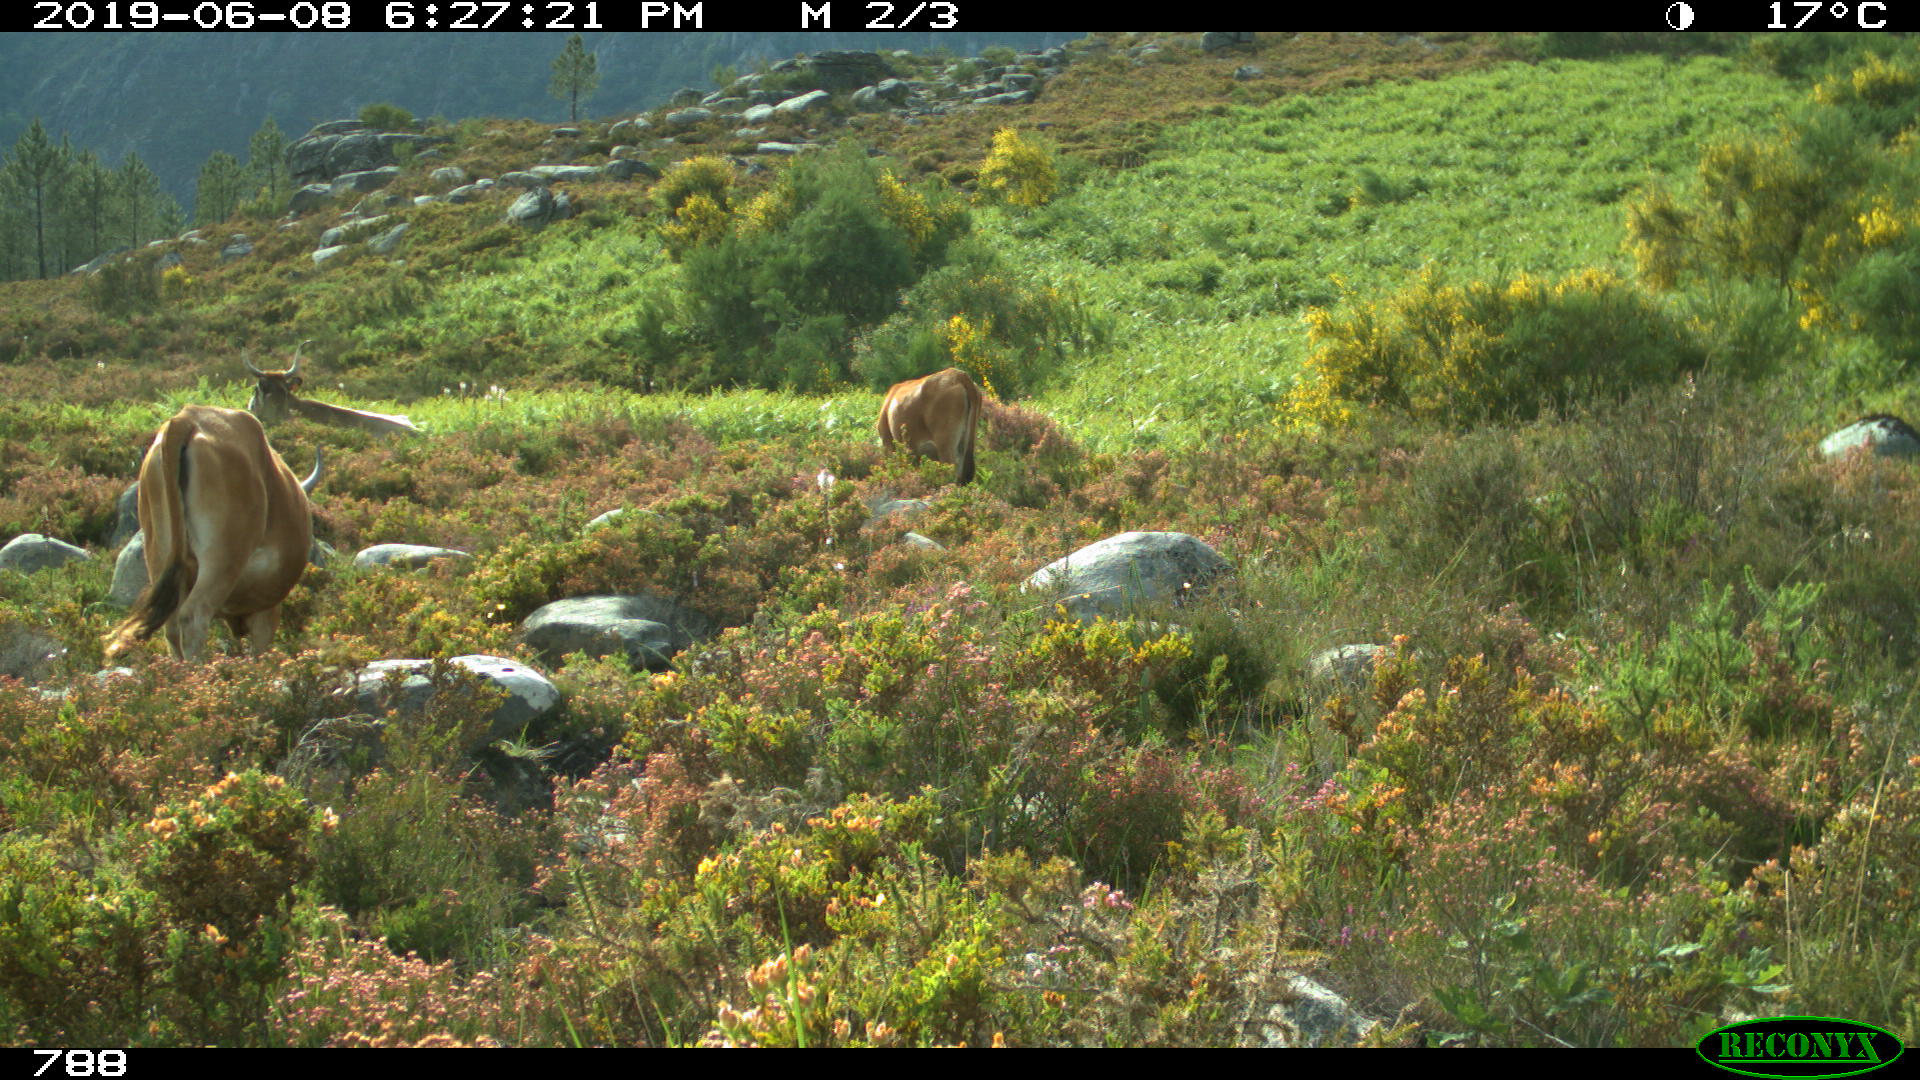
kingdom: Animalia
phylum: Chordata
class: Mammalia
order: Artiodactyla
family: Bovidae
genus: Bos
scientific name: Bos taurus
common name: Domesticated cattle
